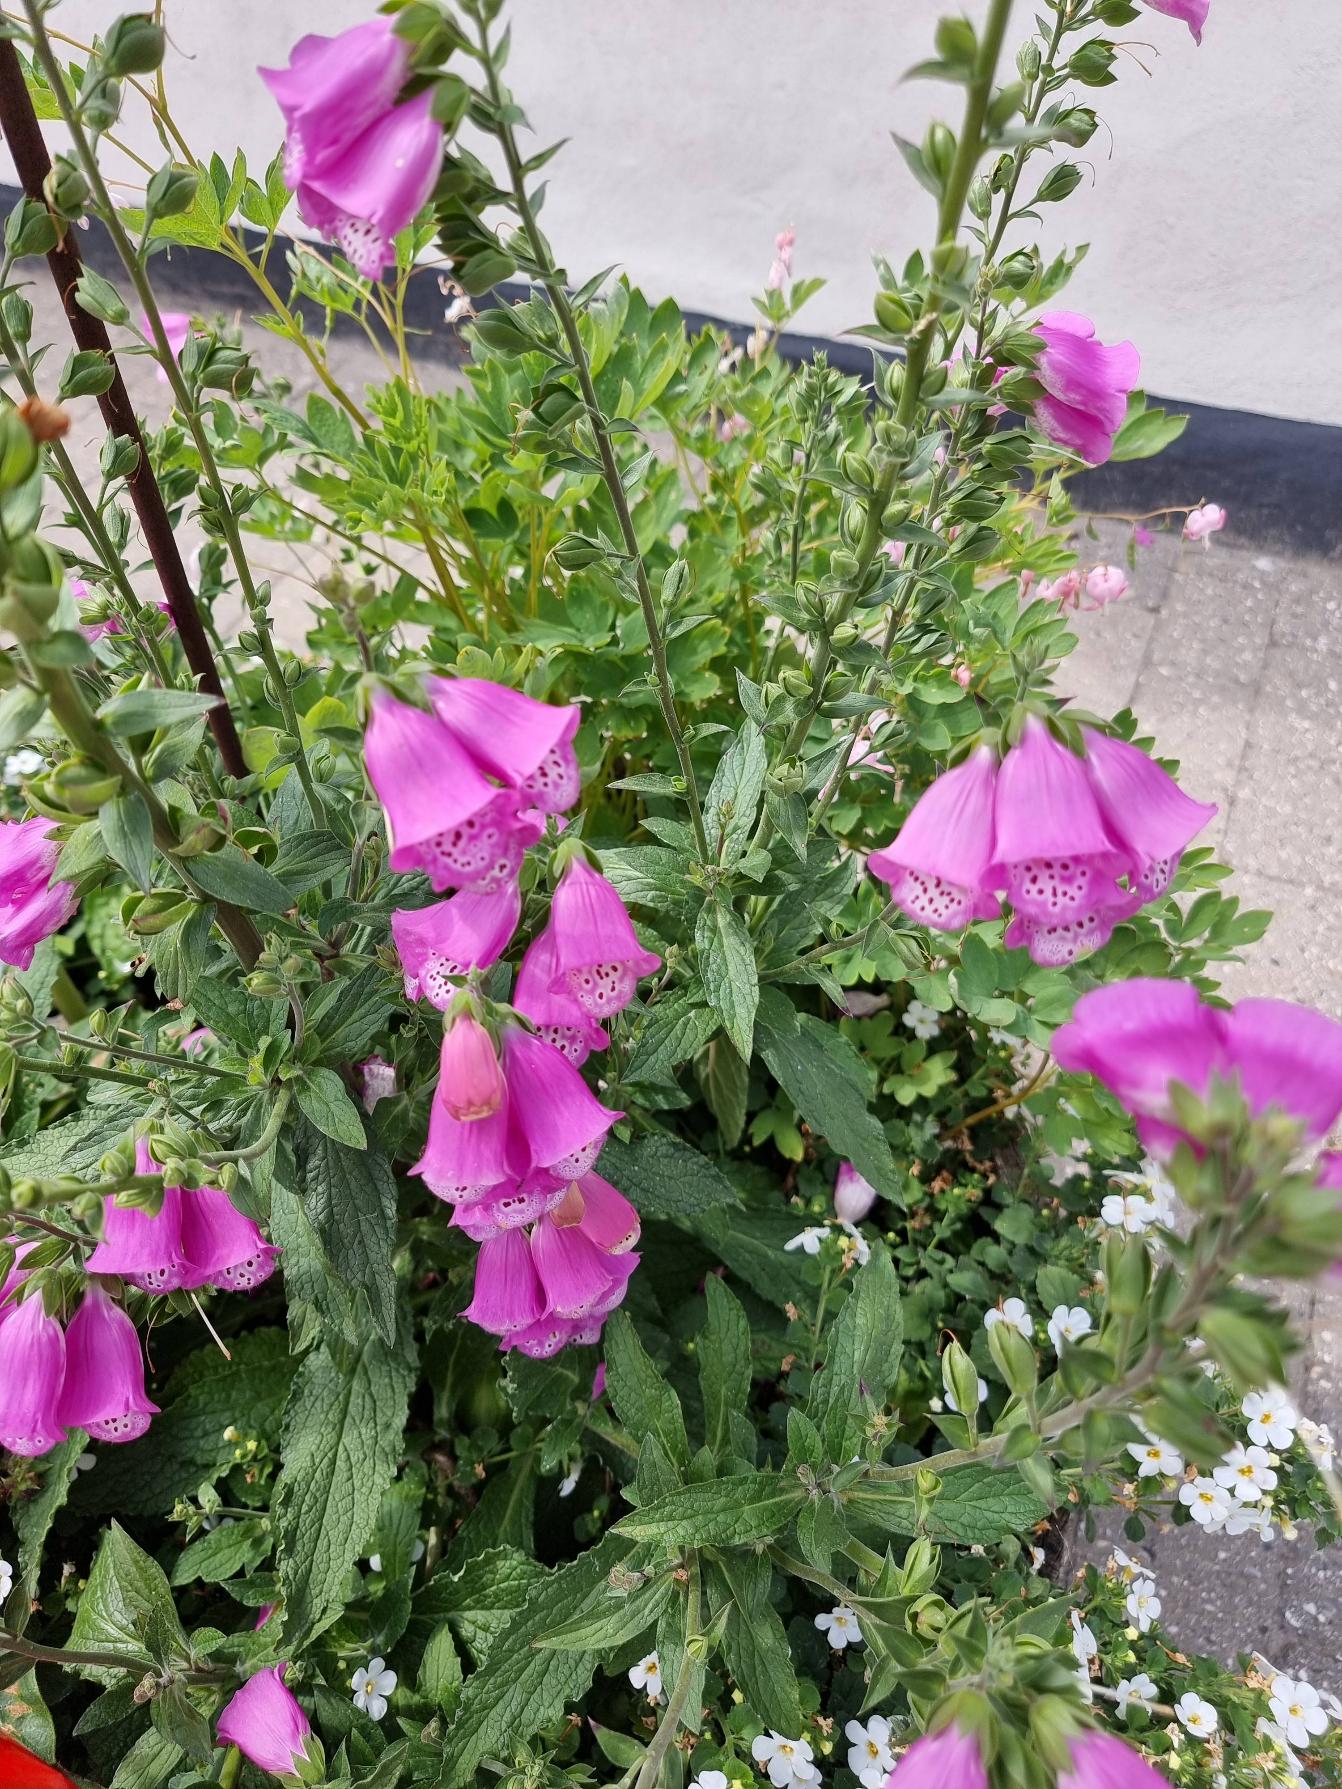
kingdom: Plantae
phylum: Tracheophyta
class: Magnoliopsida
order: Lamiales
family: Plantaginaceae
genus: Digitalis
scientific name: Digitalis purpurea
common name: Almindelig fingerbøl
